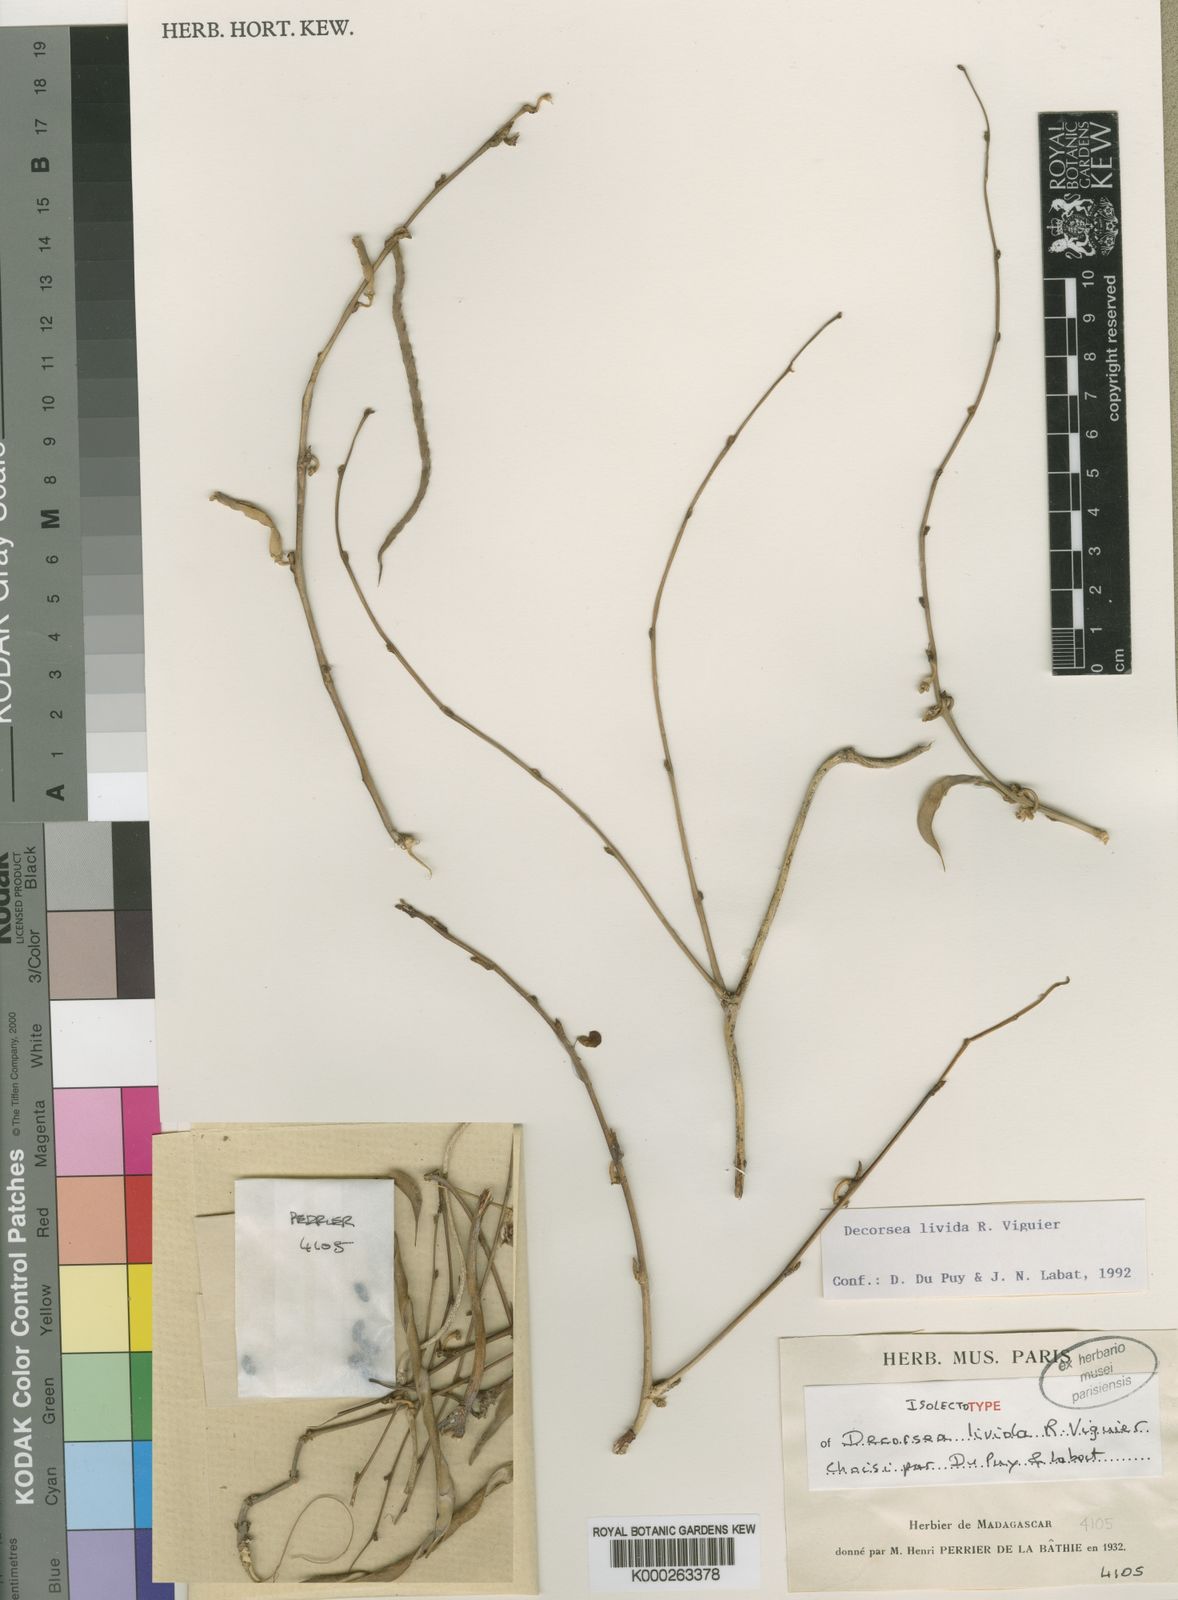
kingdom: Plantae
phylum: Tracheophyta
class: Magnoliopsida
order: Fabales
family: Fabaceae
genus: Decorsea
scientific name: Decorsea livida
